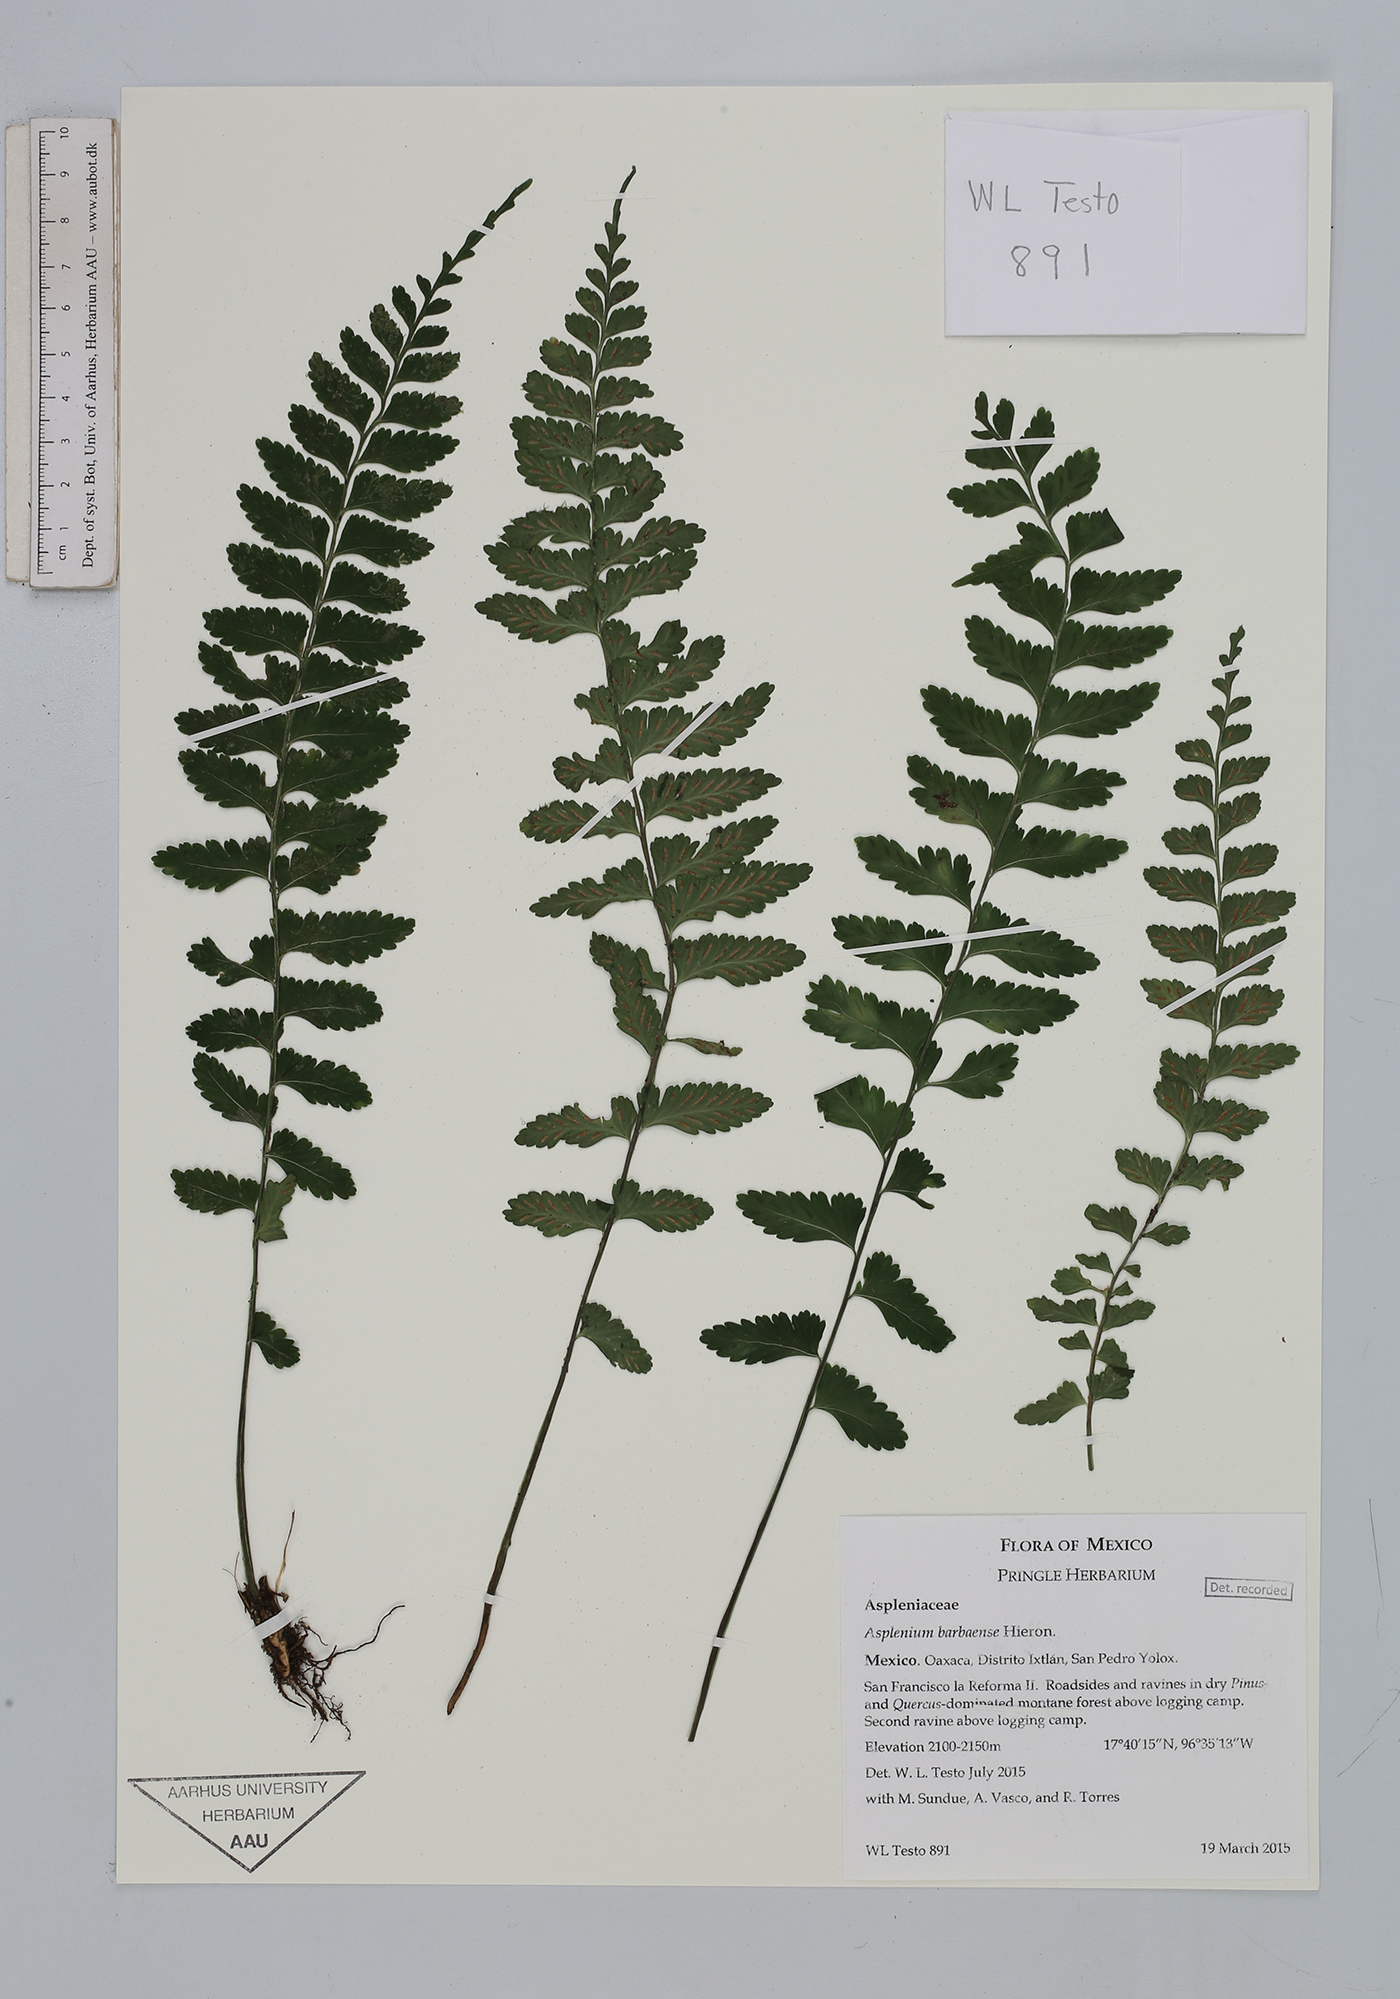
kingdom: Plantae
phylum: Tracheophyta
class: Polypodiopsida
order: Polypodiales
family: Aspleniaceae
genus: Asplenium
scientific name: Asplenium barbaense
